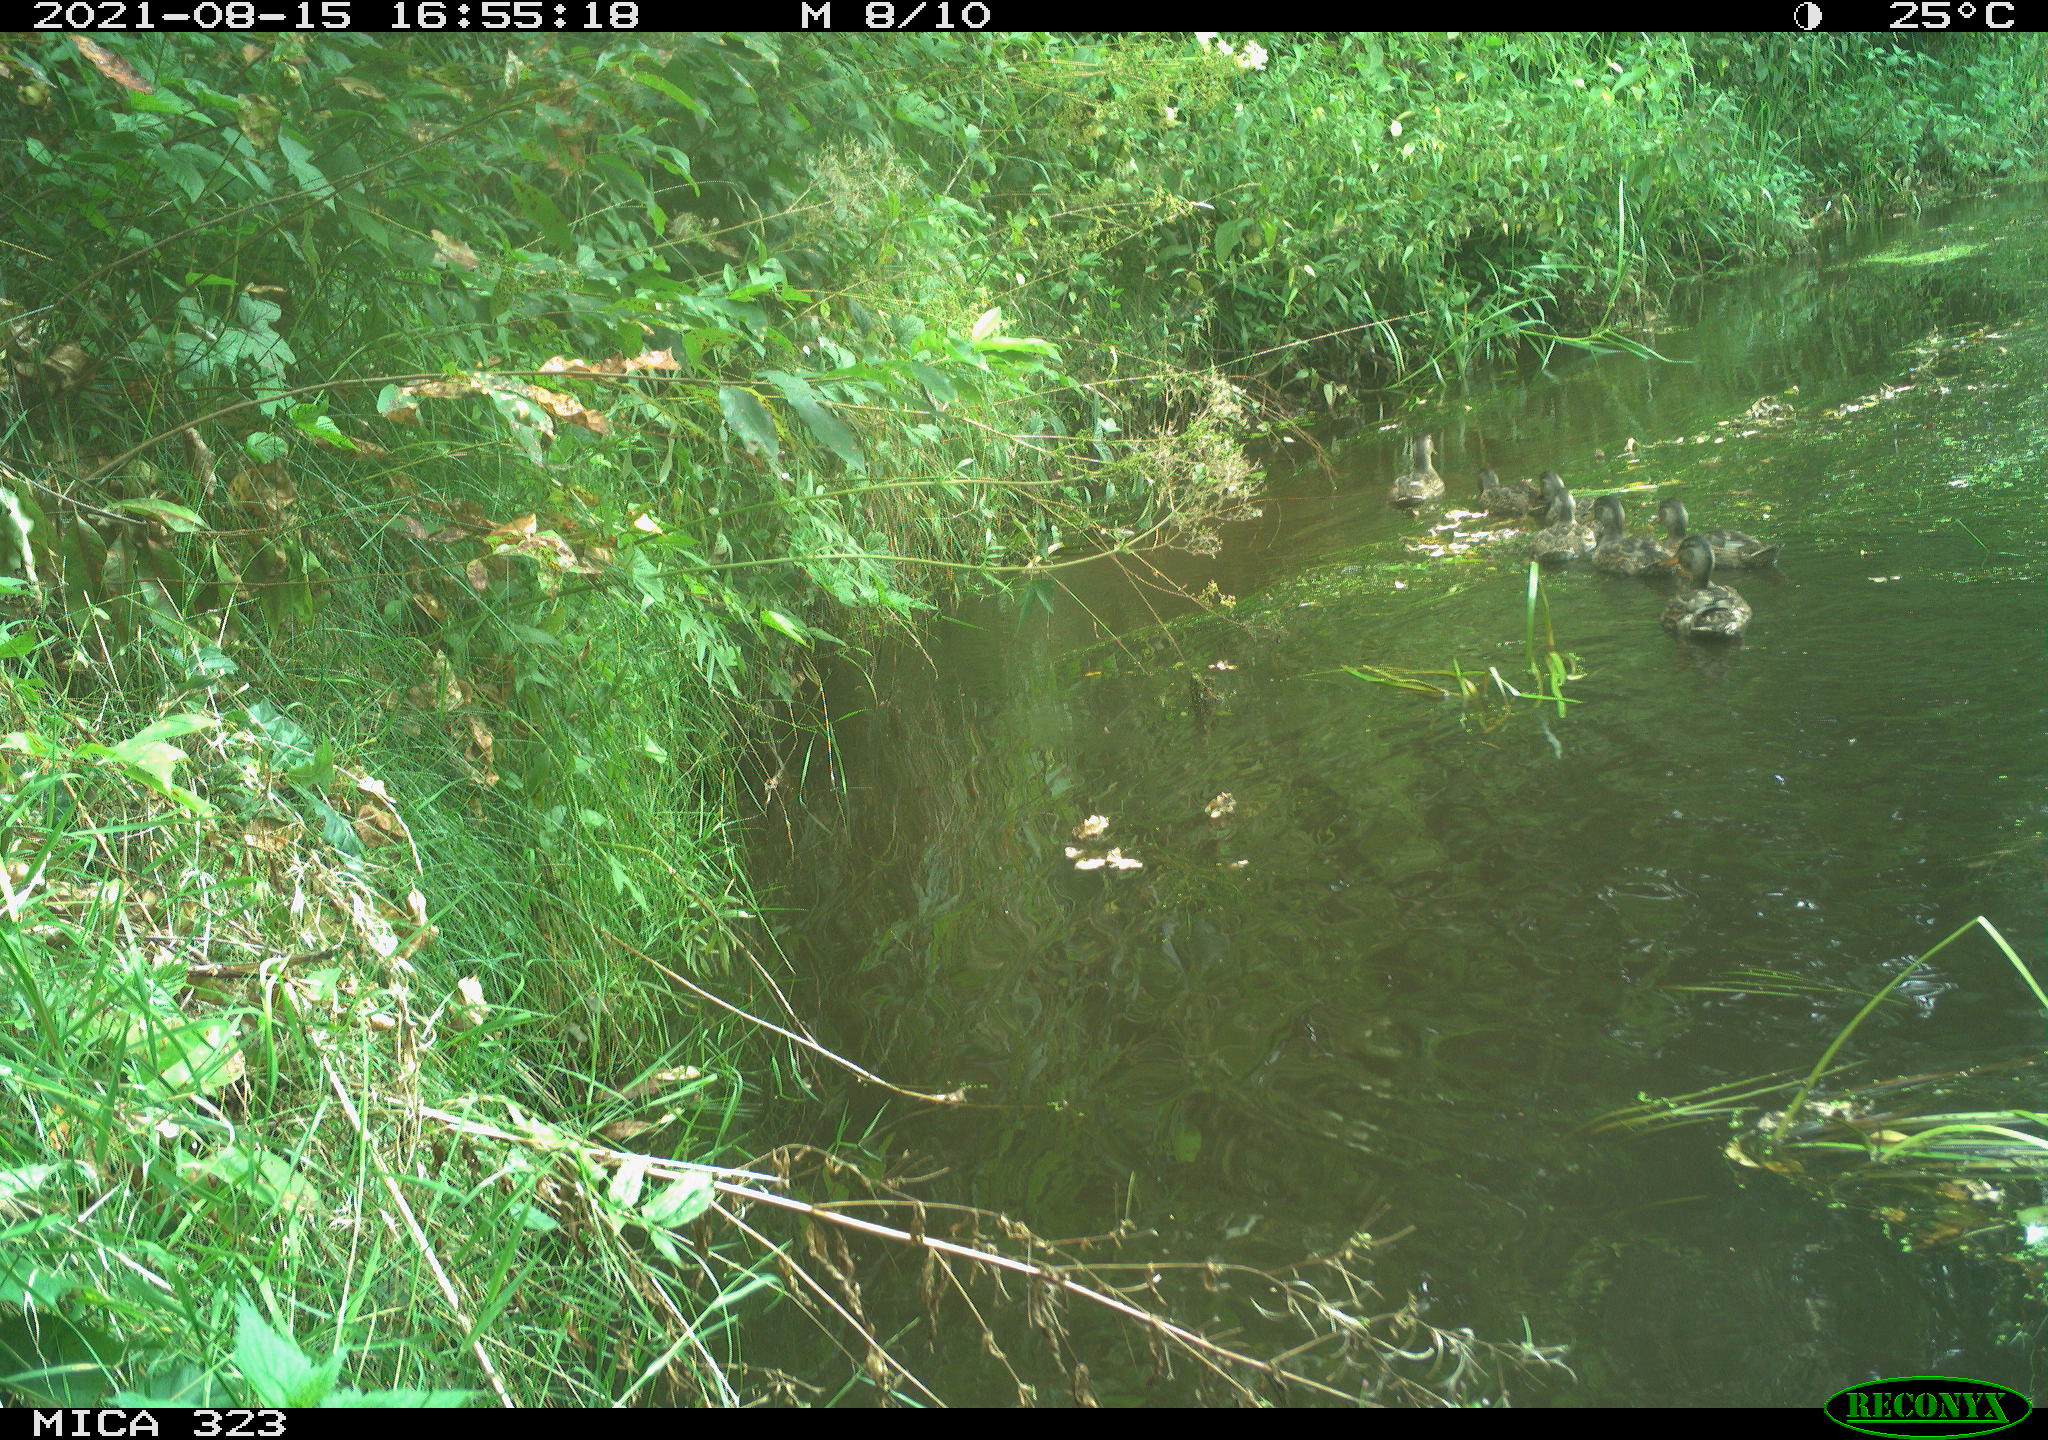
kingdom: Animalia
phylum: Chordata
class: Aves
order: Anseriformes
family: Anatidae
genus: Anas
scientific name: Anas platyrhynchos
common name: Mallard
